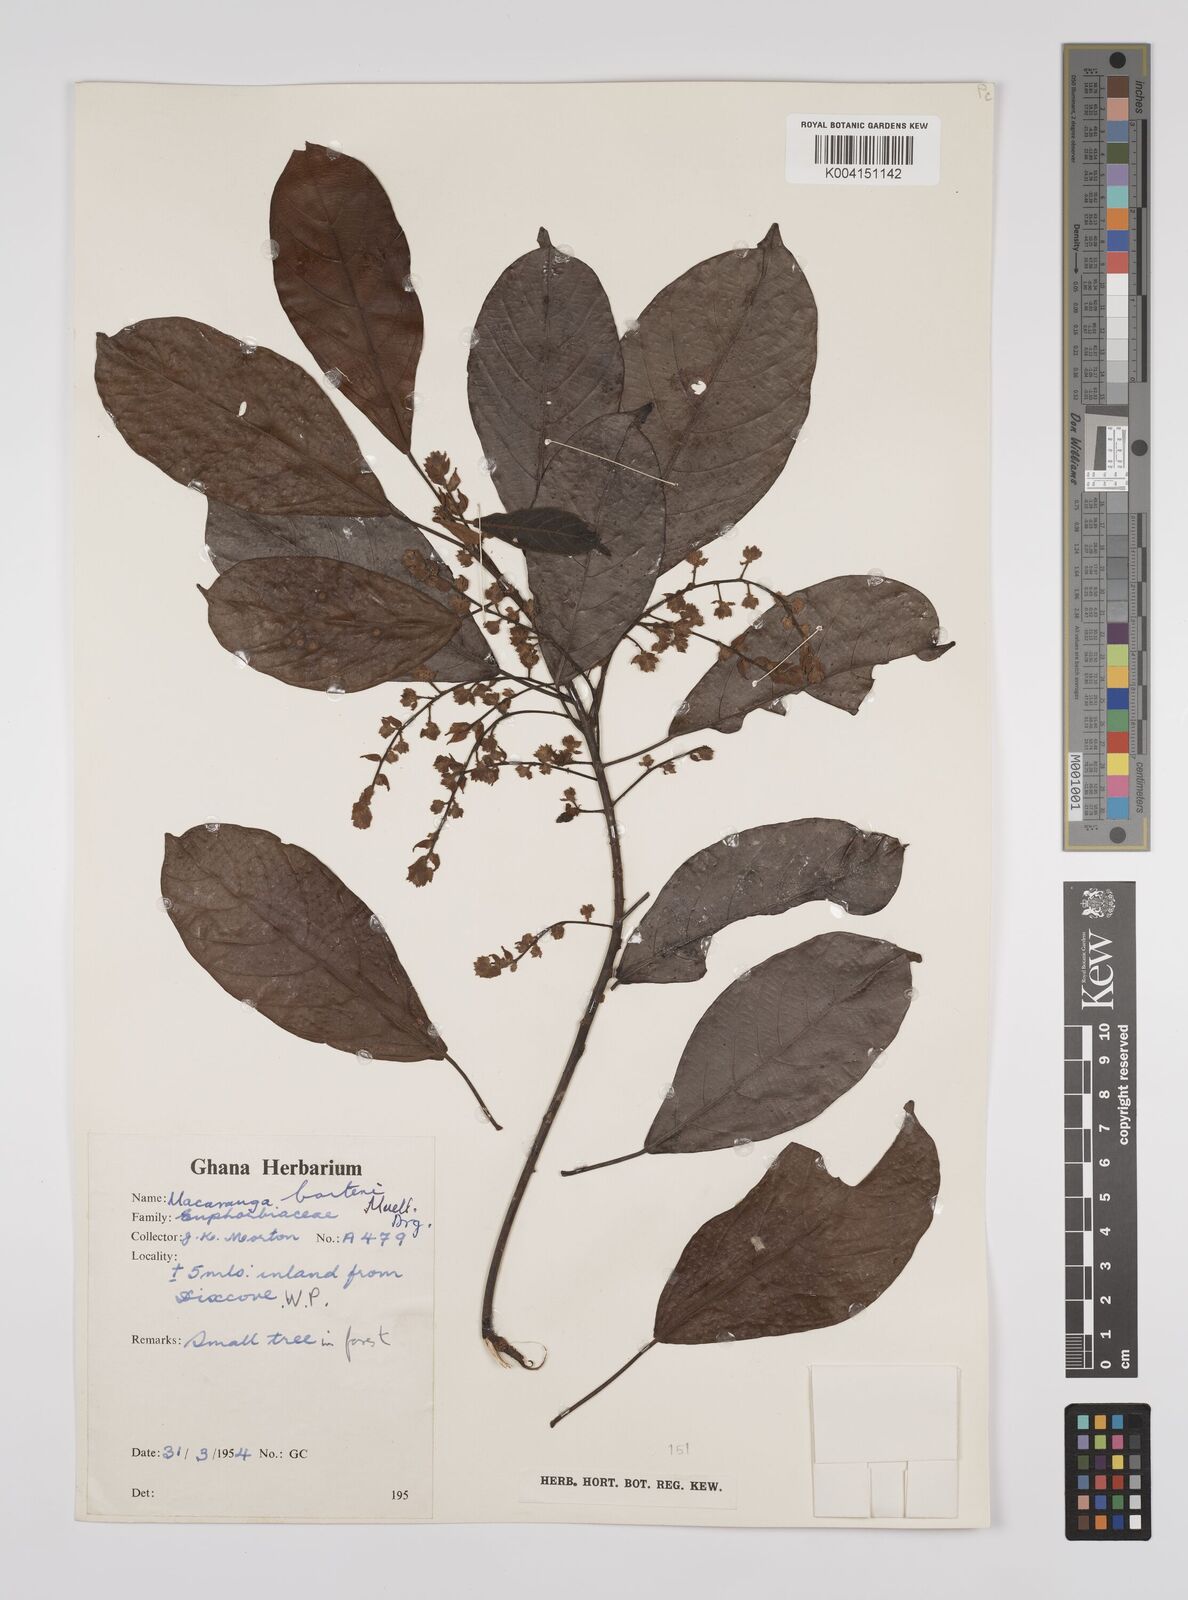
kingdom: Plantae
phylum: Tracheophyta
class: Magnoliopsida
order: Malpighiales
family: Euphorbiaceae
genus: Macaranga
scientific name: Macaranga barteri
